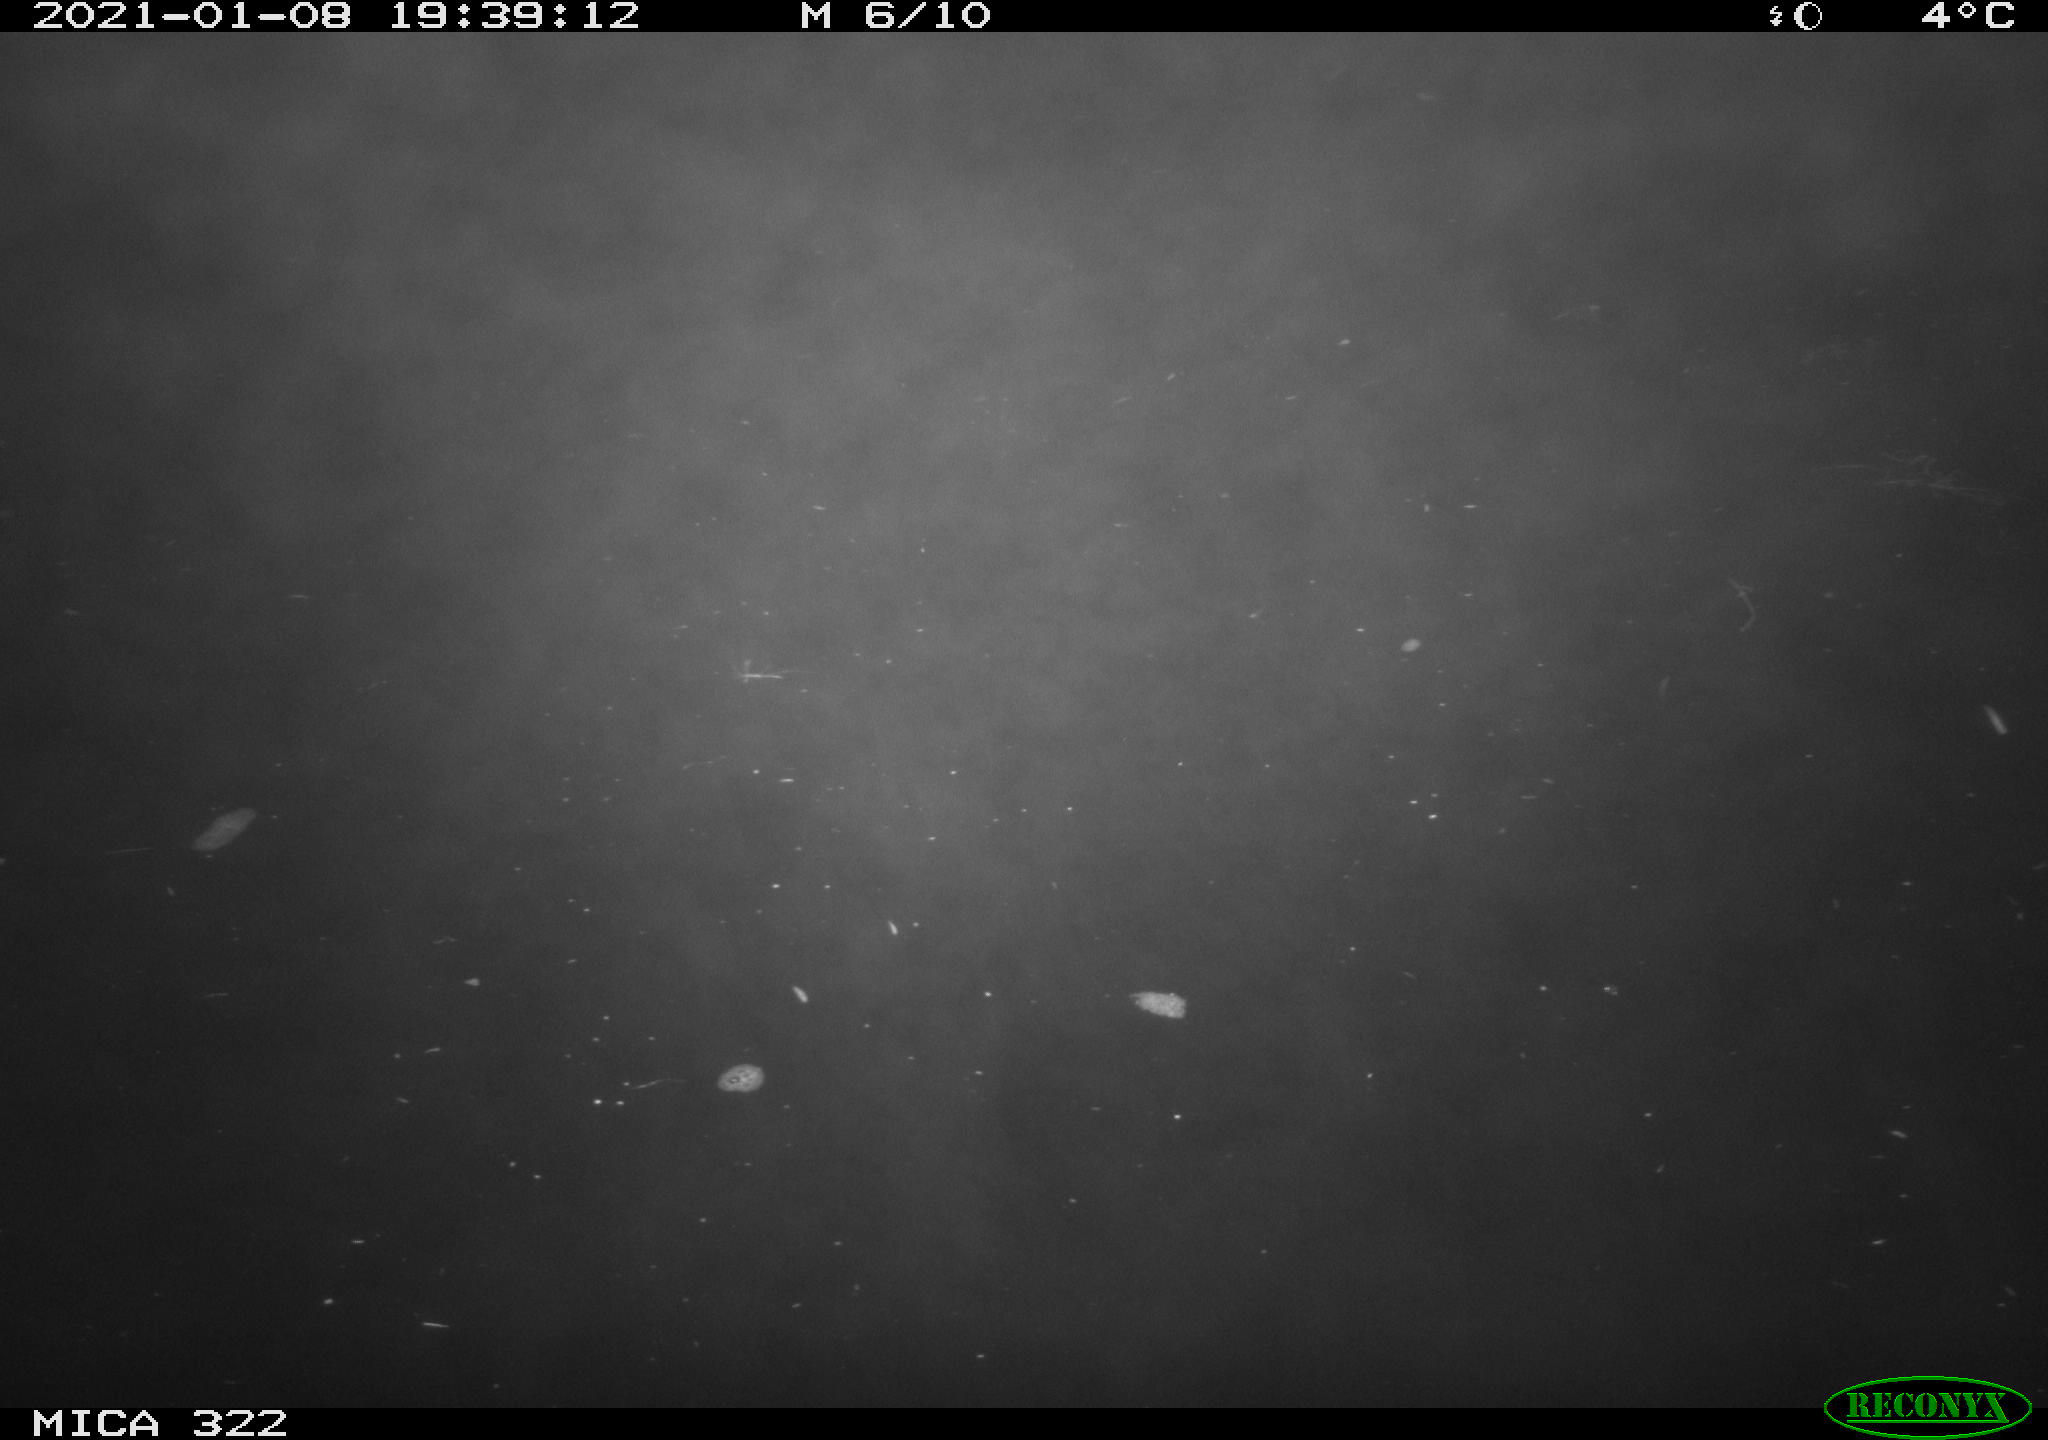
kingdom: Animalia
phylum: Chordata
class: Mammalia
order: Rodentia
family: Muridae
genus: Rattus
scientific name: Rattus norvegicus
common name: Brown rat
